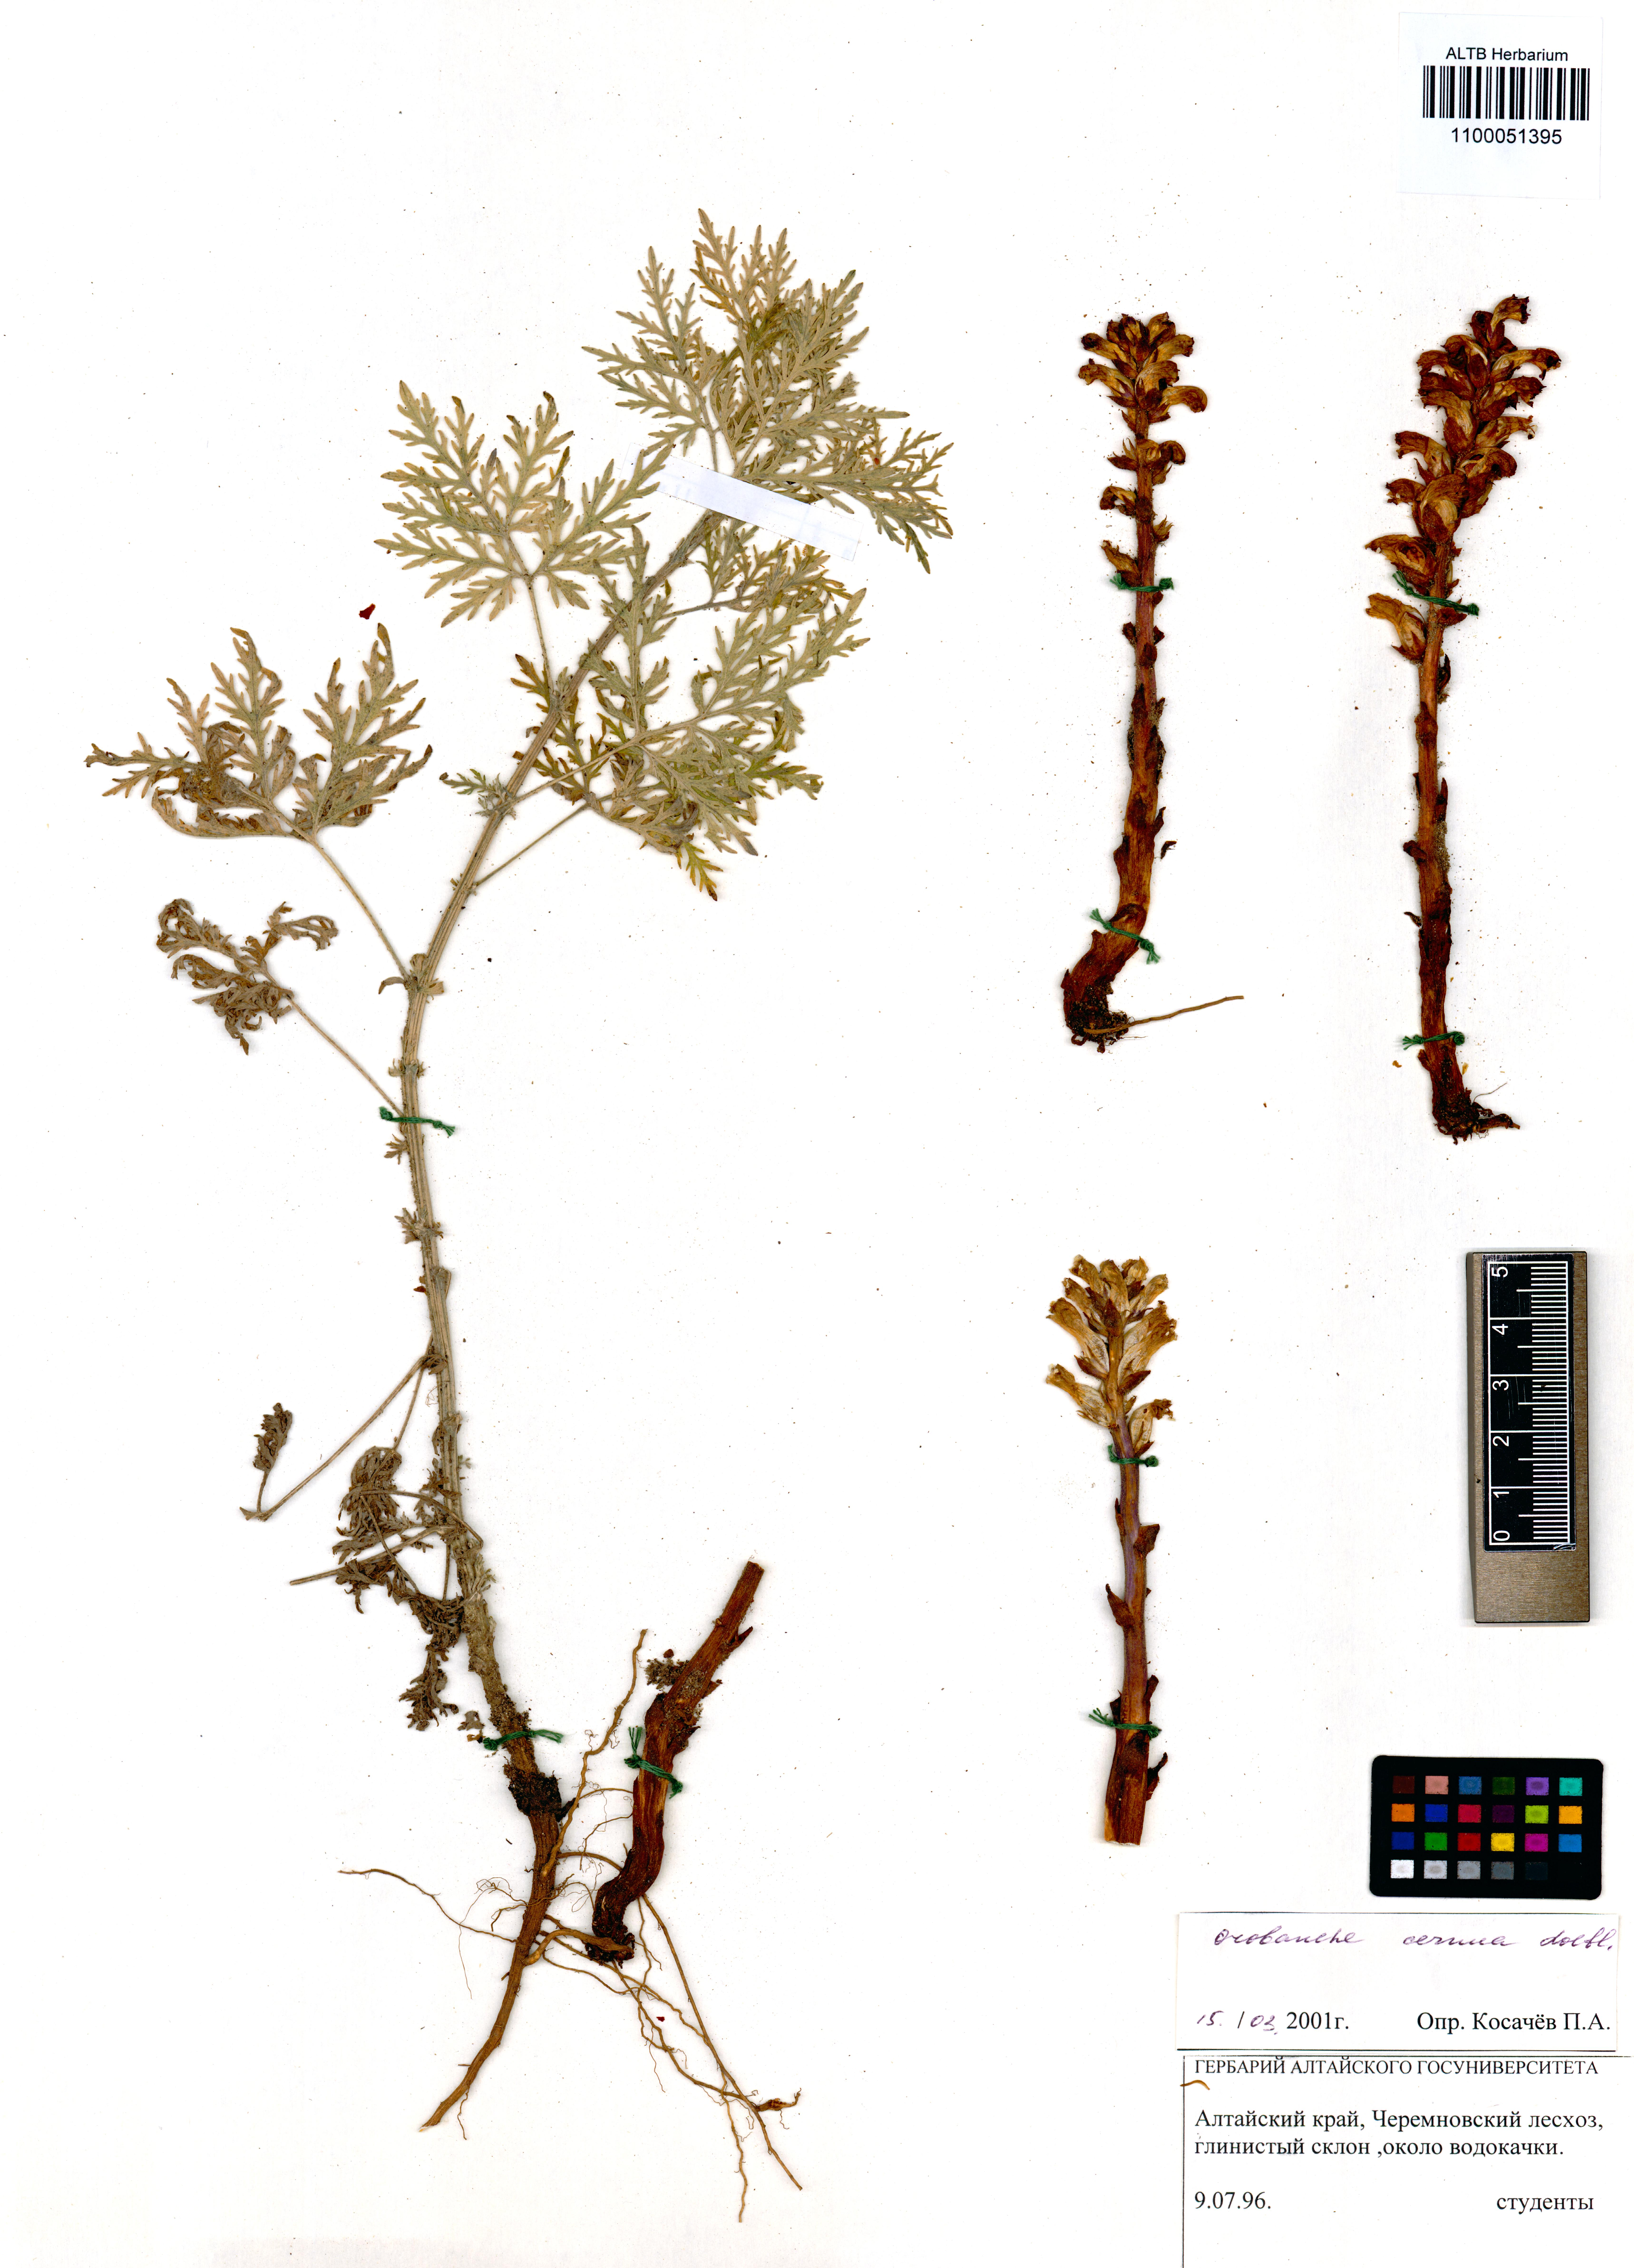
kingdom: Plantae
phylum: Tracheophyta
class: Magnoliopsida
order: Lamiales
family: Orobanchaceae
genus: Orobanche
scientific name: Orobanche cernua
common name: Australian broomrape
